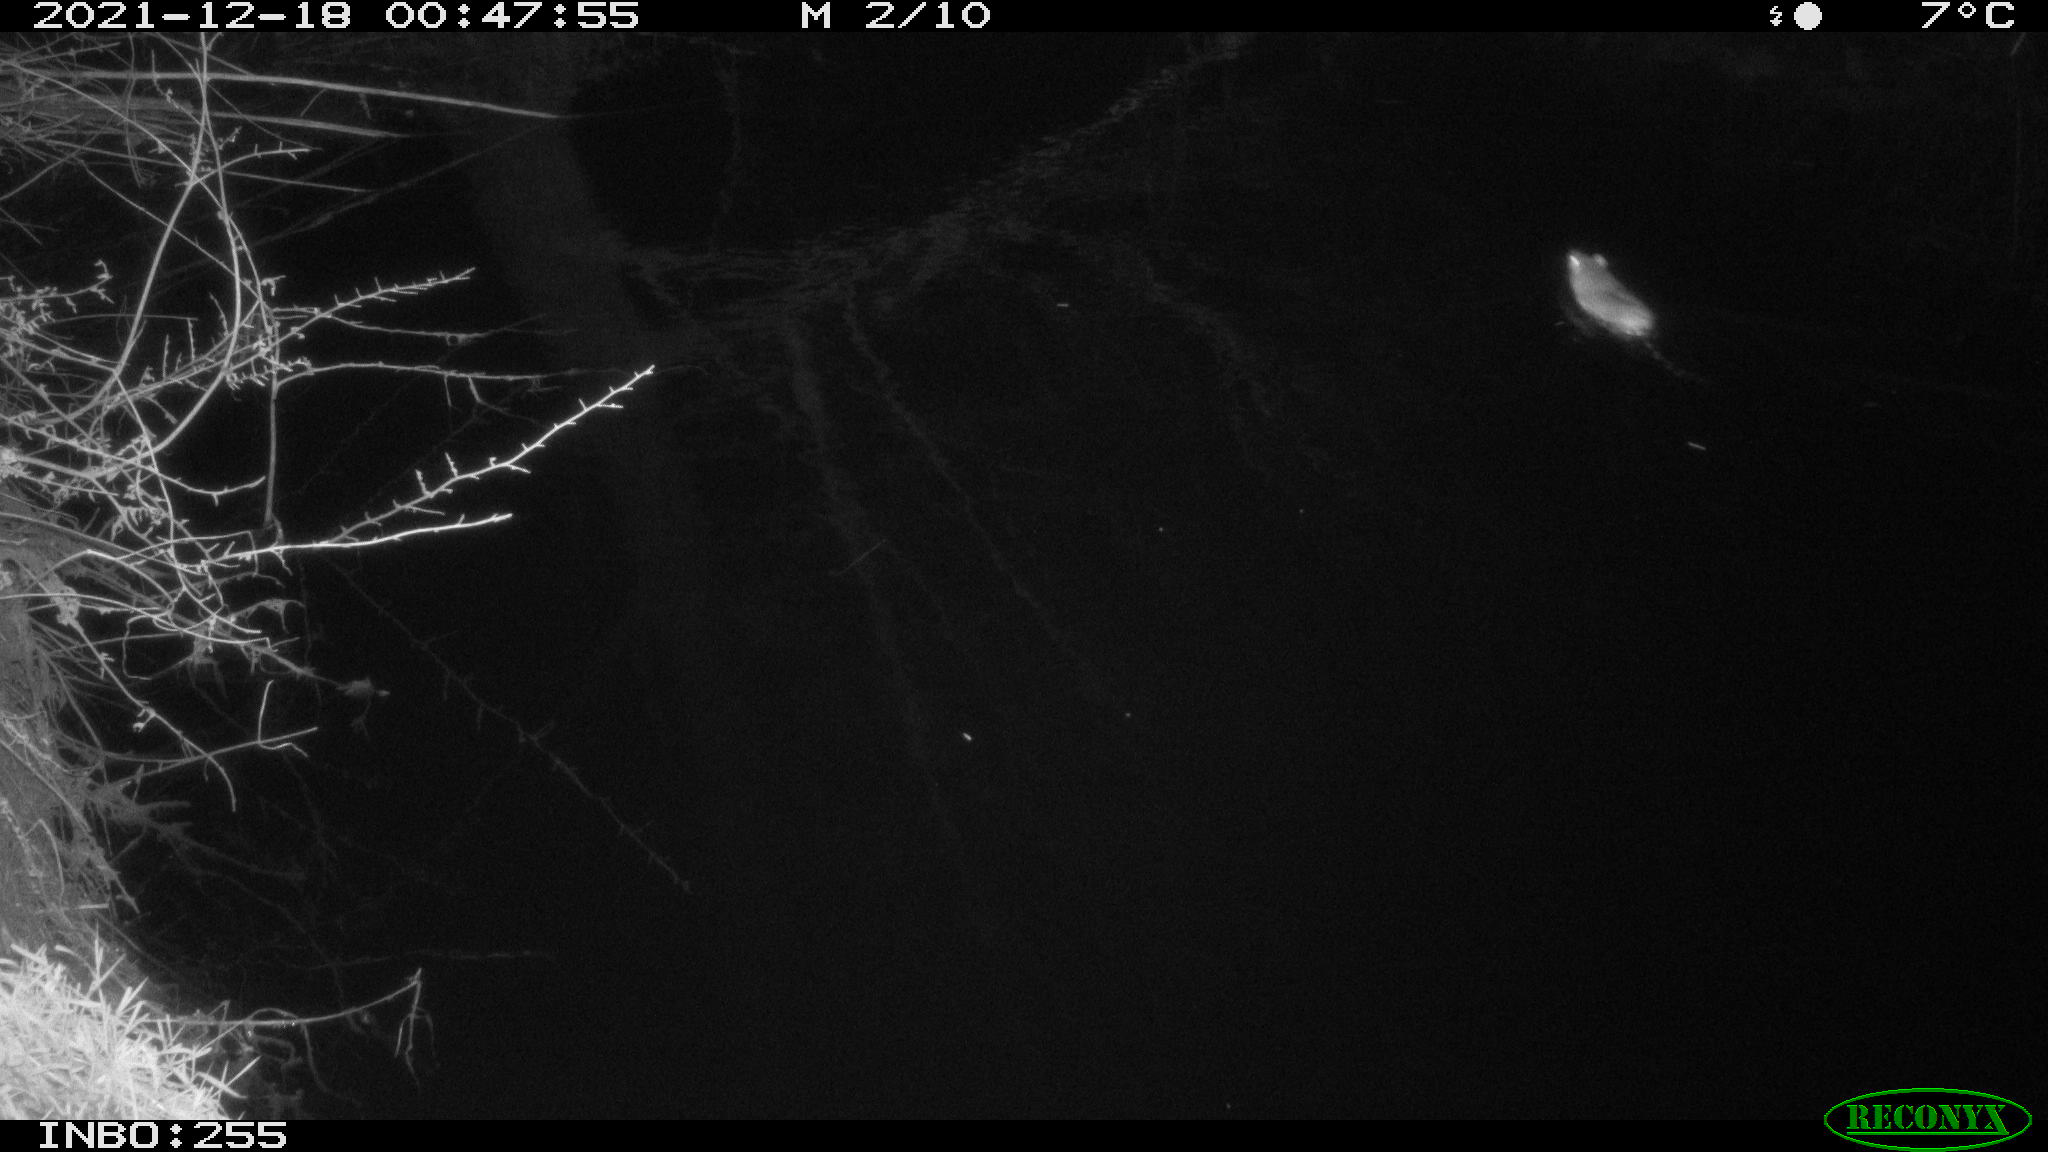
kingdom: Animalia
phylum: Chordata
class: Mammalia
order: Rodentia
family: Muridae
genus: Rattus
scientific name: Rattus norvegicus
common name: Brown rat
